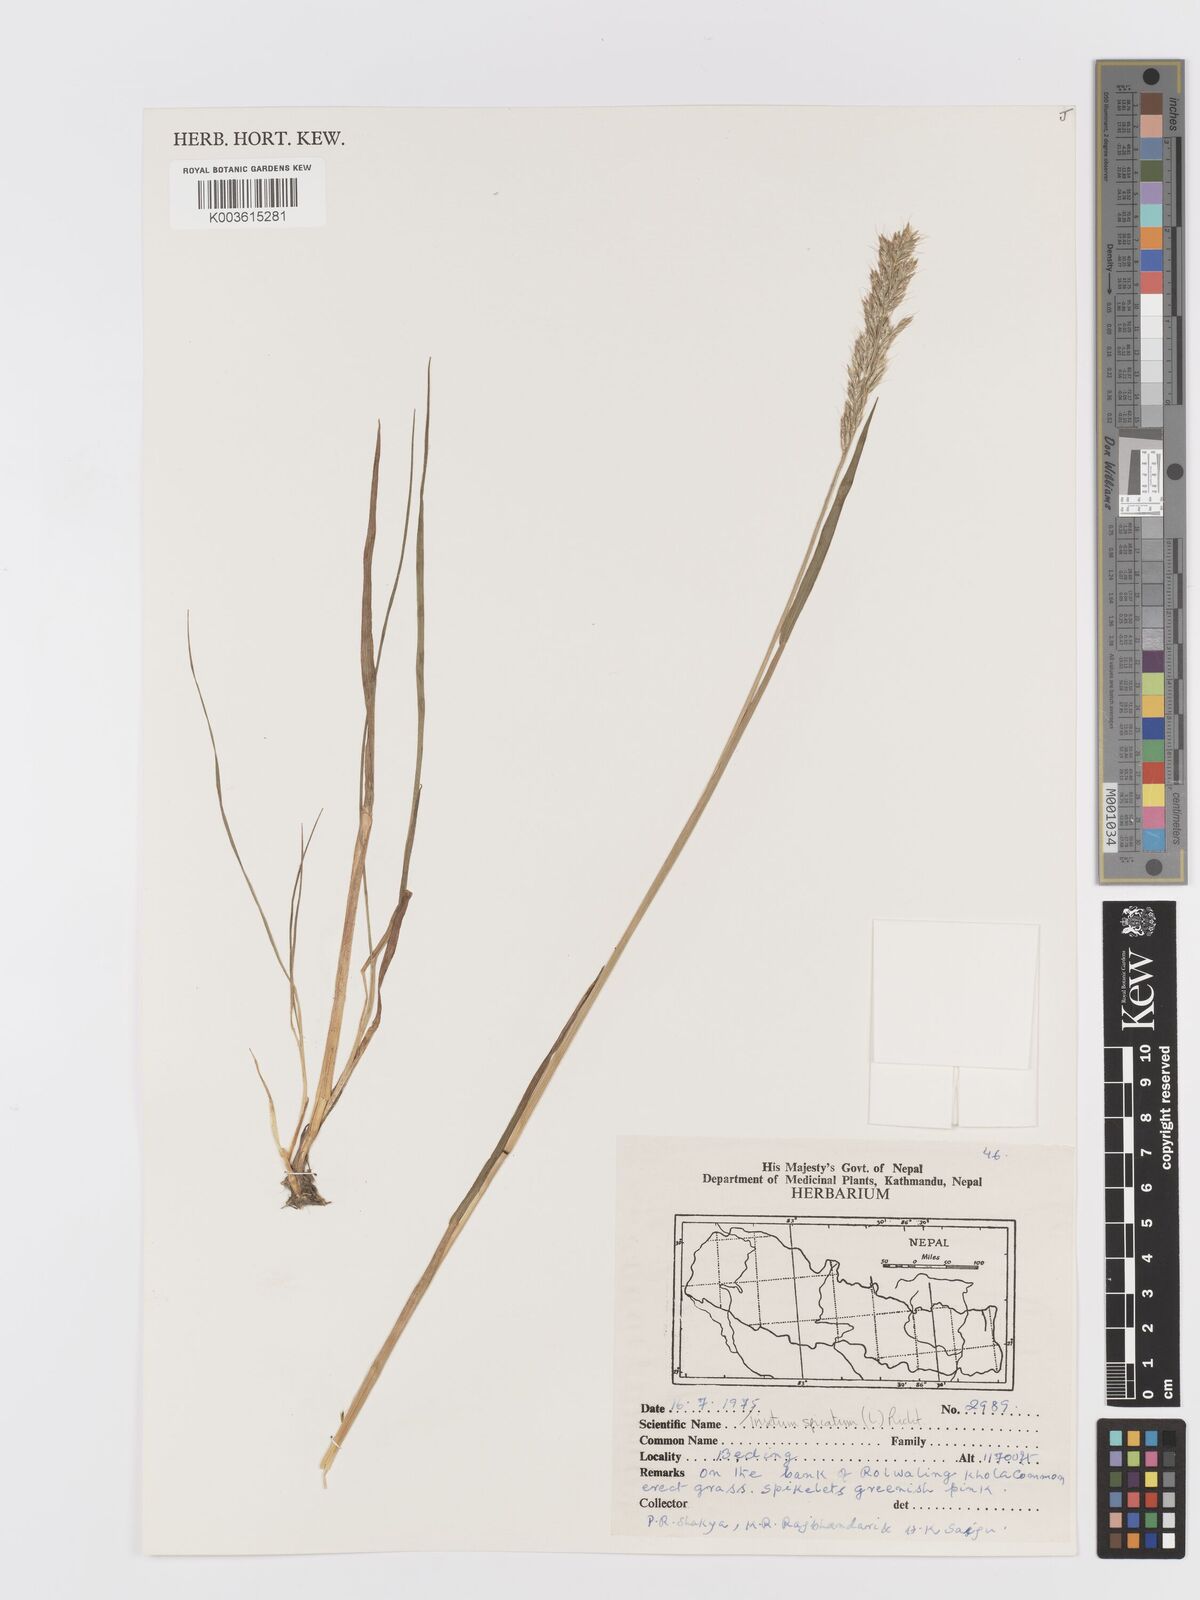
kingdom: Plantae
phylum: Tracheophyta
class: Liliopsida
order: Poales
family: Poaceae
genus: Koeleria
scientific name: Koeleria spicata
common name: Mountain trisetum
